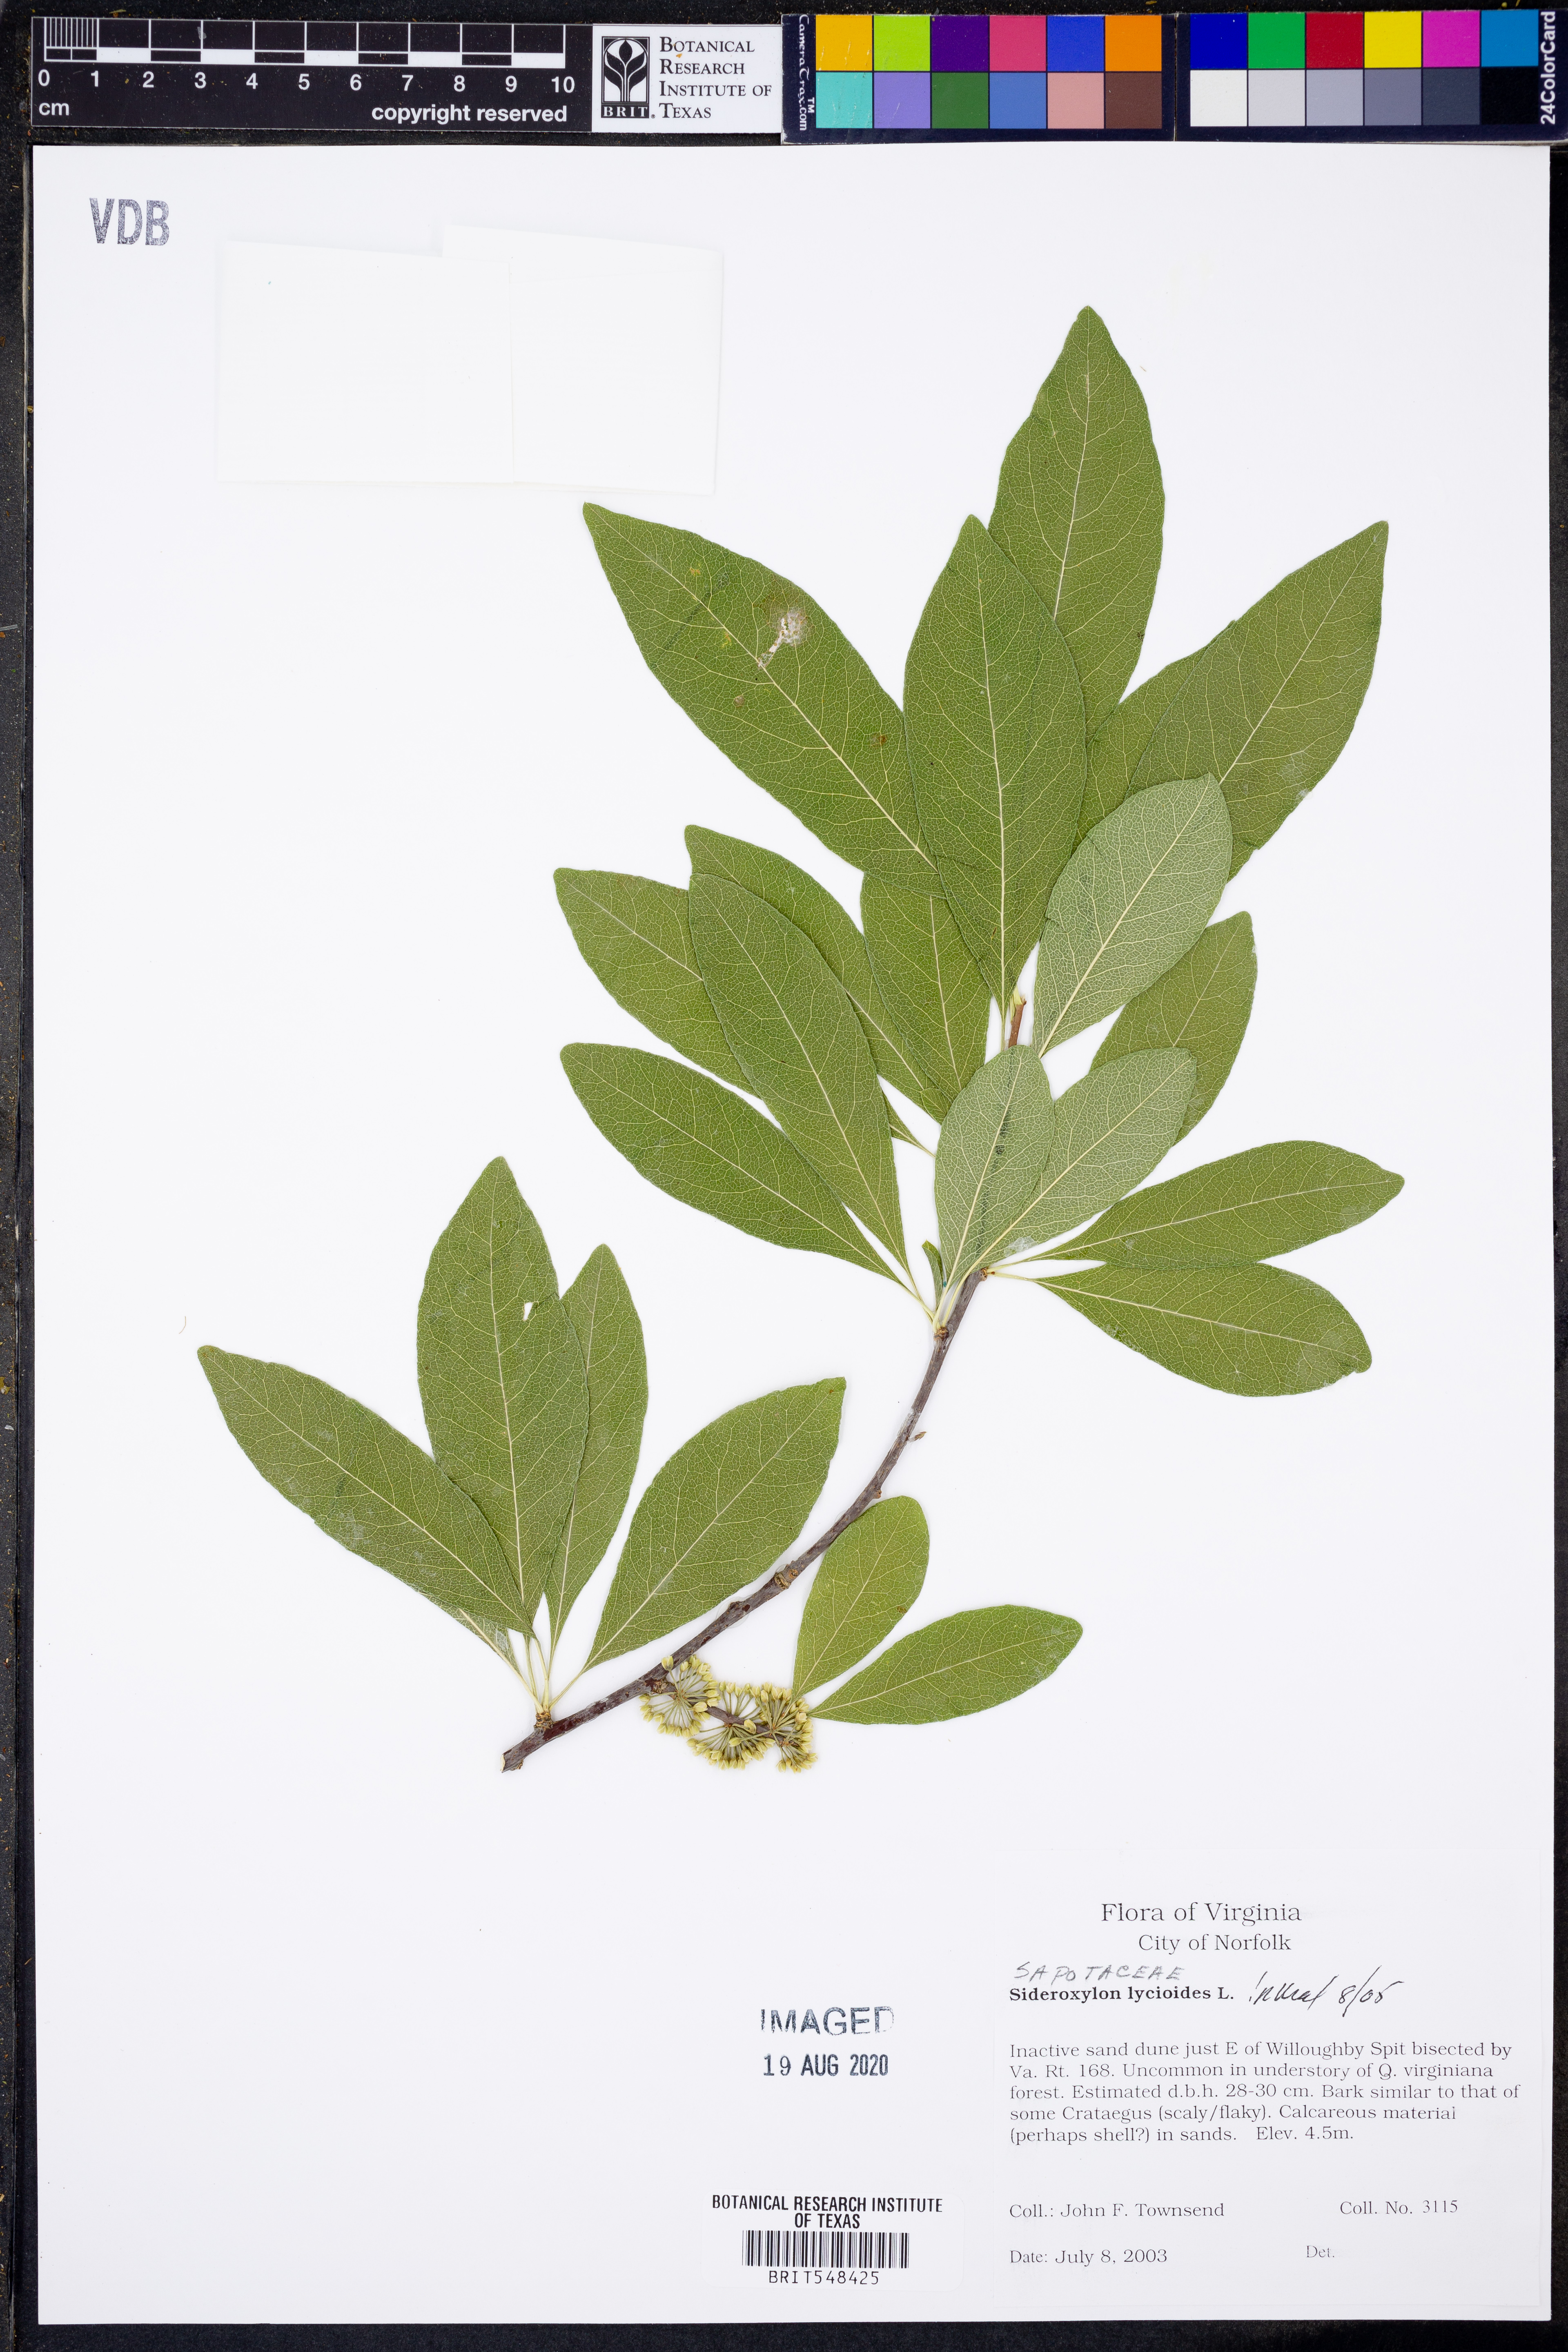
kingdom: Plantae
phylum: Tracheophyta
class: Magnoliopsida
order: Ericales
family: Sapotaceae
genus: Sideroxylon
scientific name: Sideroxylon lycioides
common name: Buckthorn bumelia
